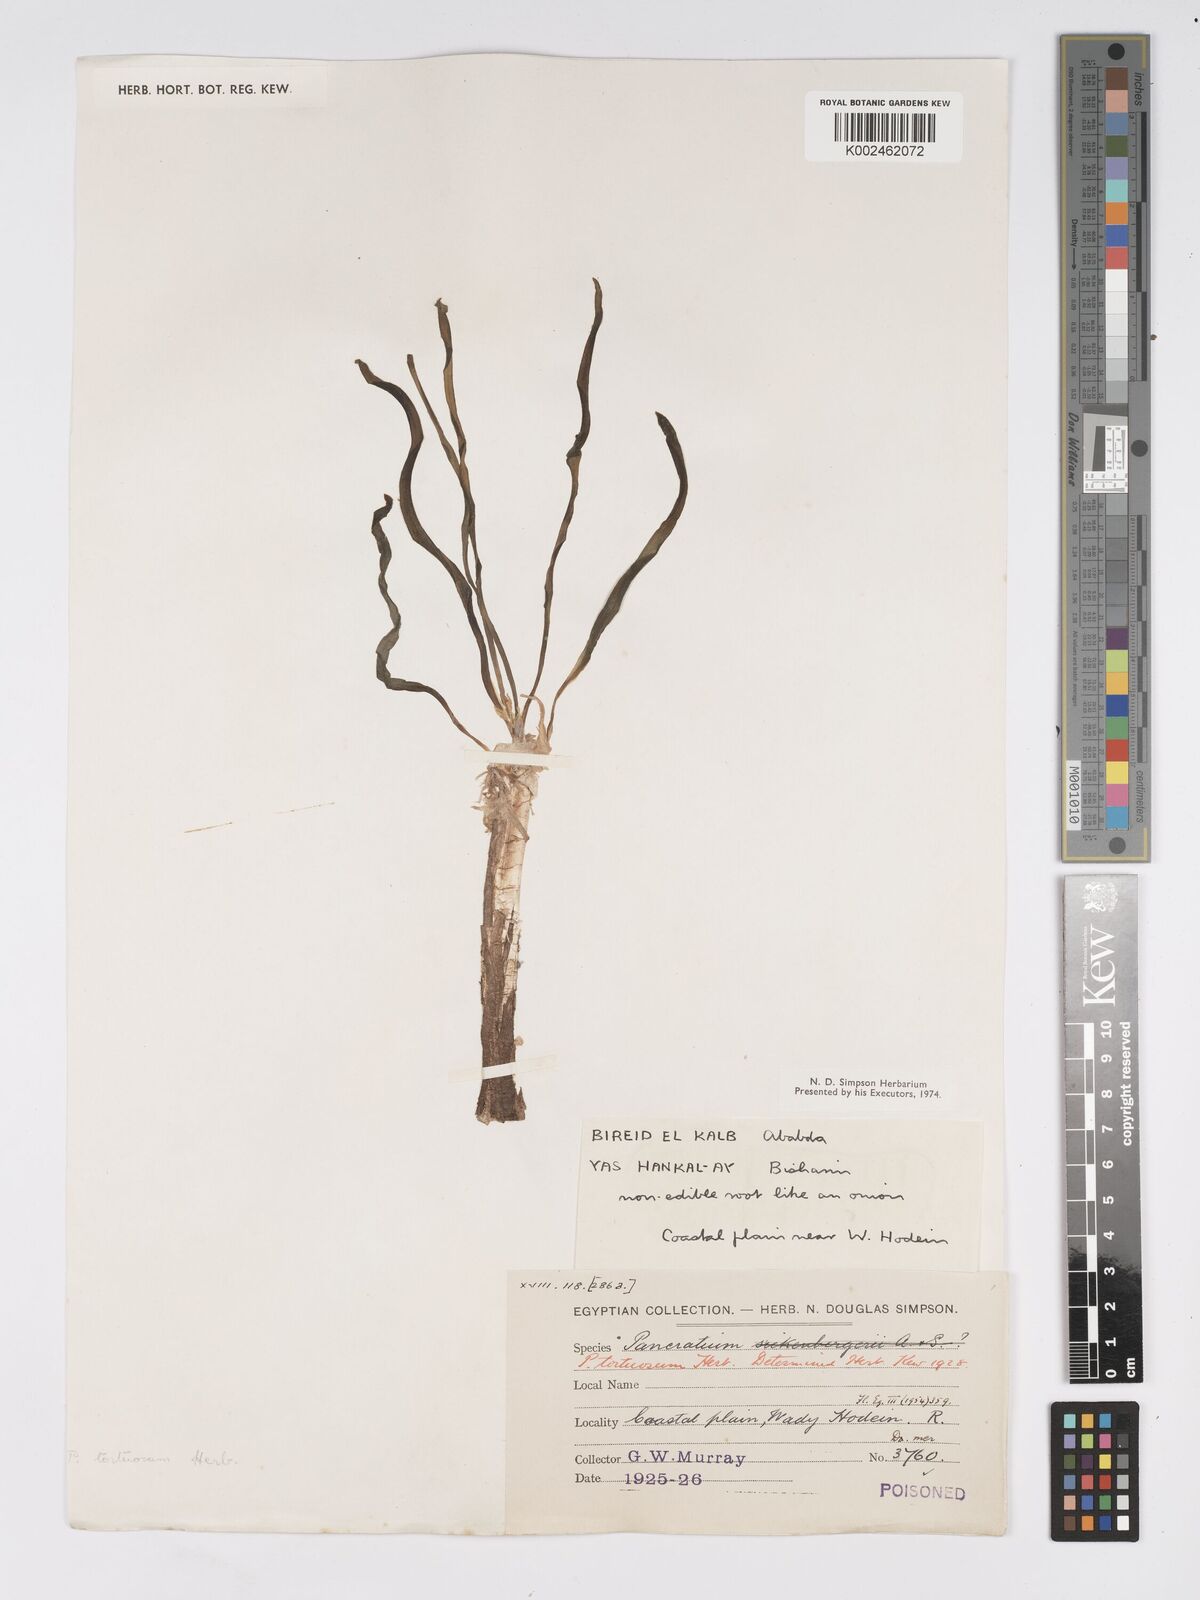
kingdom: Plantae
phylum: Tracheophyta
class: Liliopsida
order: Asparagales
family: Amaryllidaceae
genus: Pancratium
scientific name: Pancratium tortuosum
